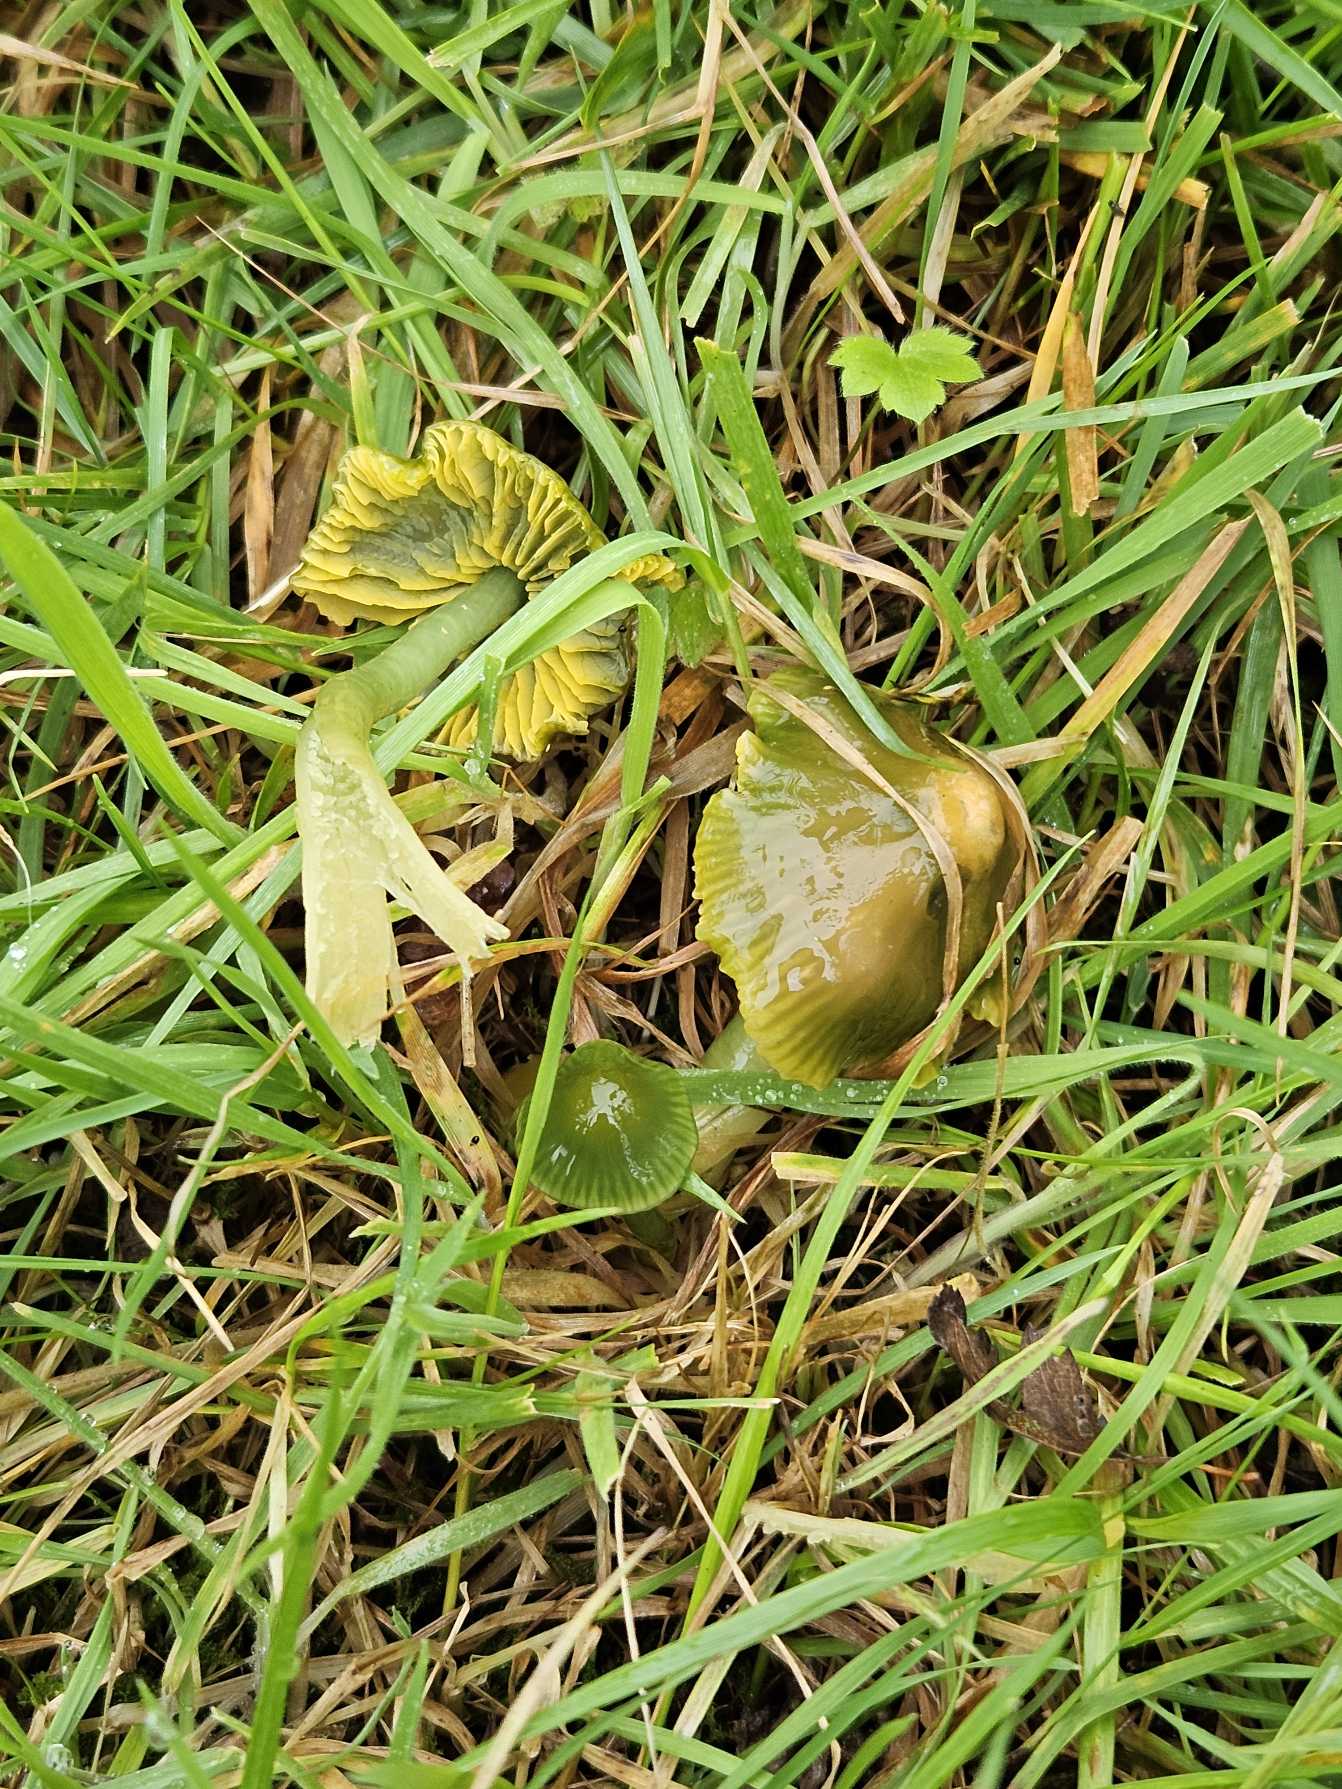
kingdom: Fungi
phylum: Basidiomycota
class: Agaricomycetes
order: Agaricales
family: Hygrophoraceae
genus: Gliophorus
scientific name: Gliophorus psittacinus
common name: Papegøje-vokshat
